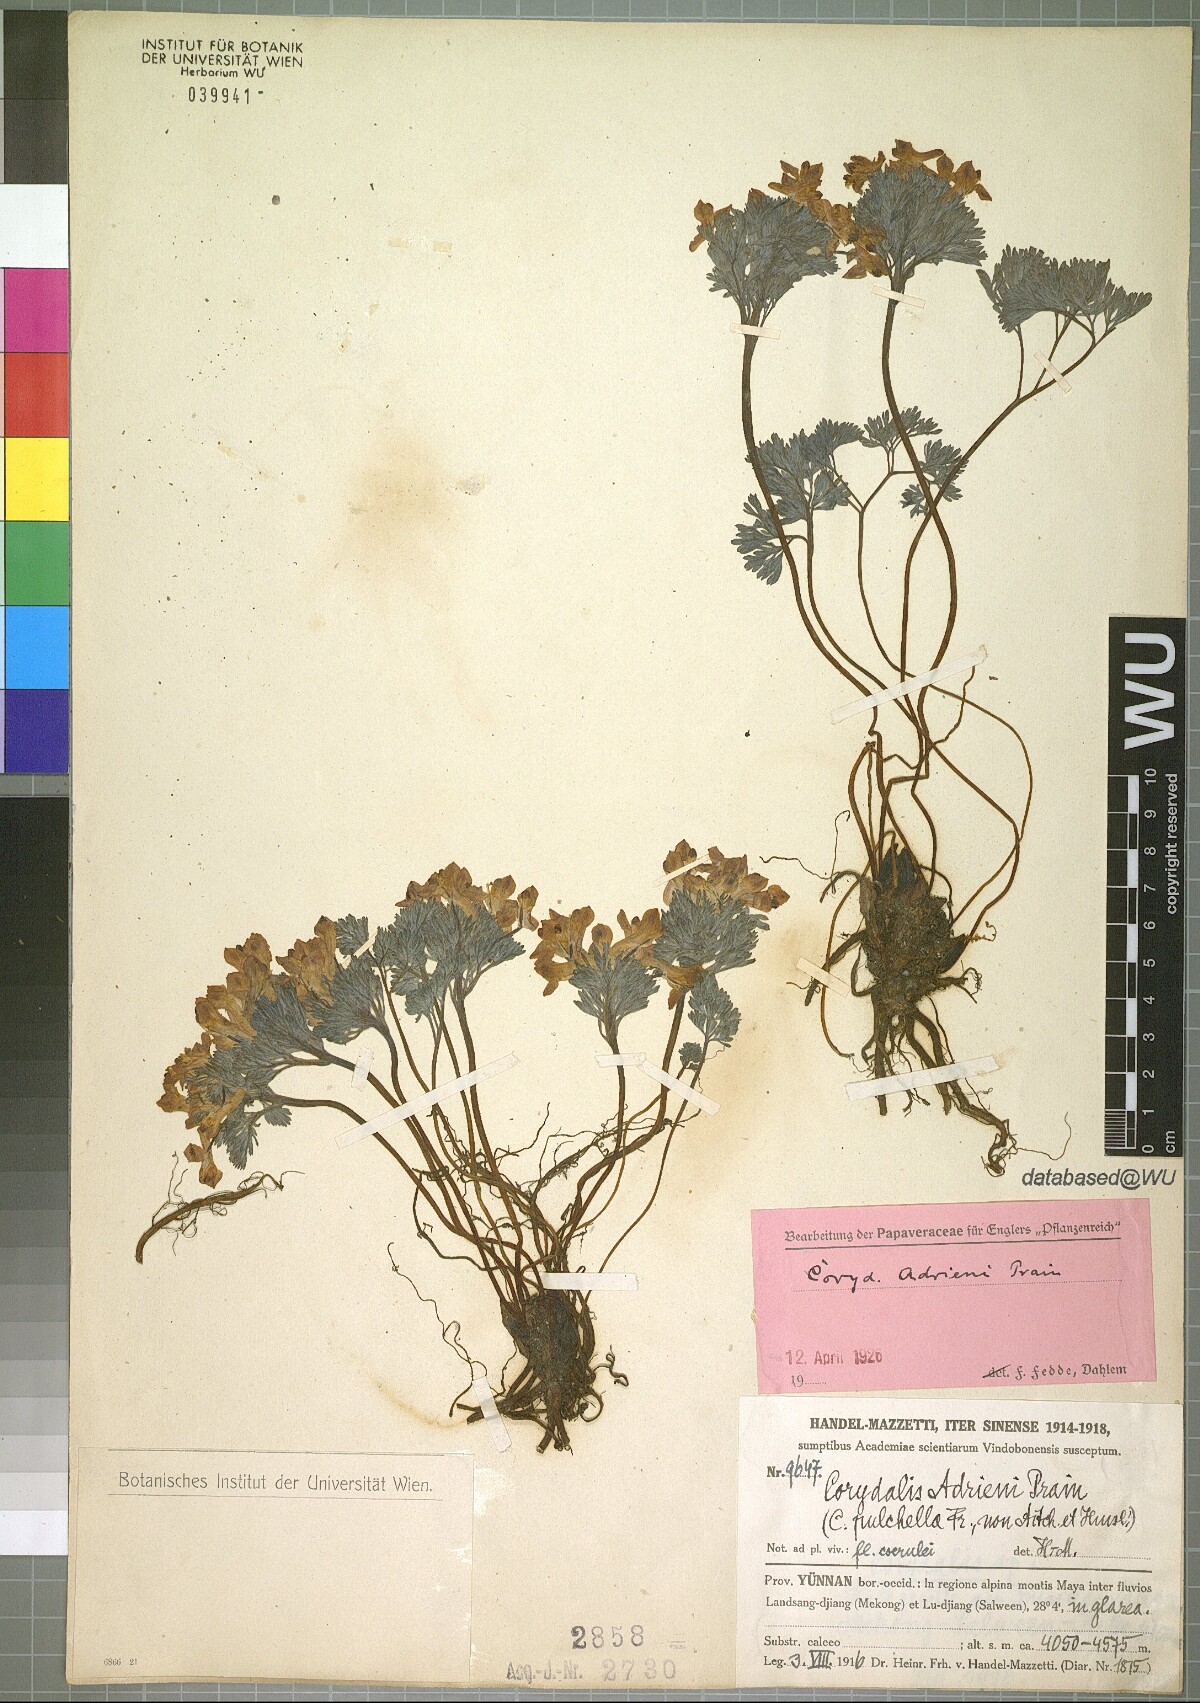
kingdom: Plantae
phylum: Tracheophyta
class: Magnoliopsida
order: Ranunculales
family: Papaveraceae
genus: Corydalis
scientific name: Corydalis melanochlora
